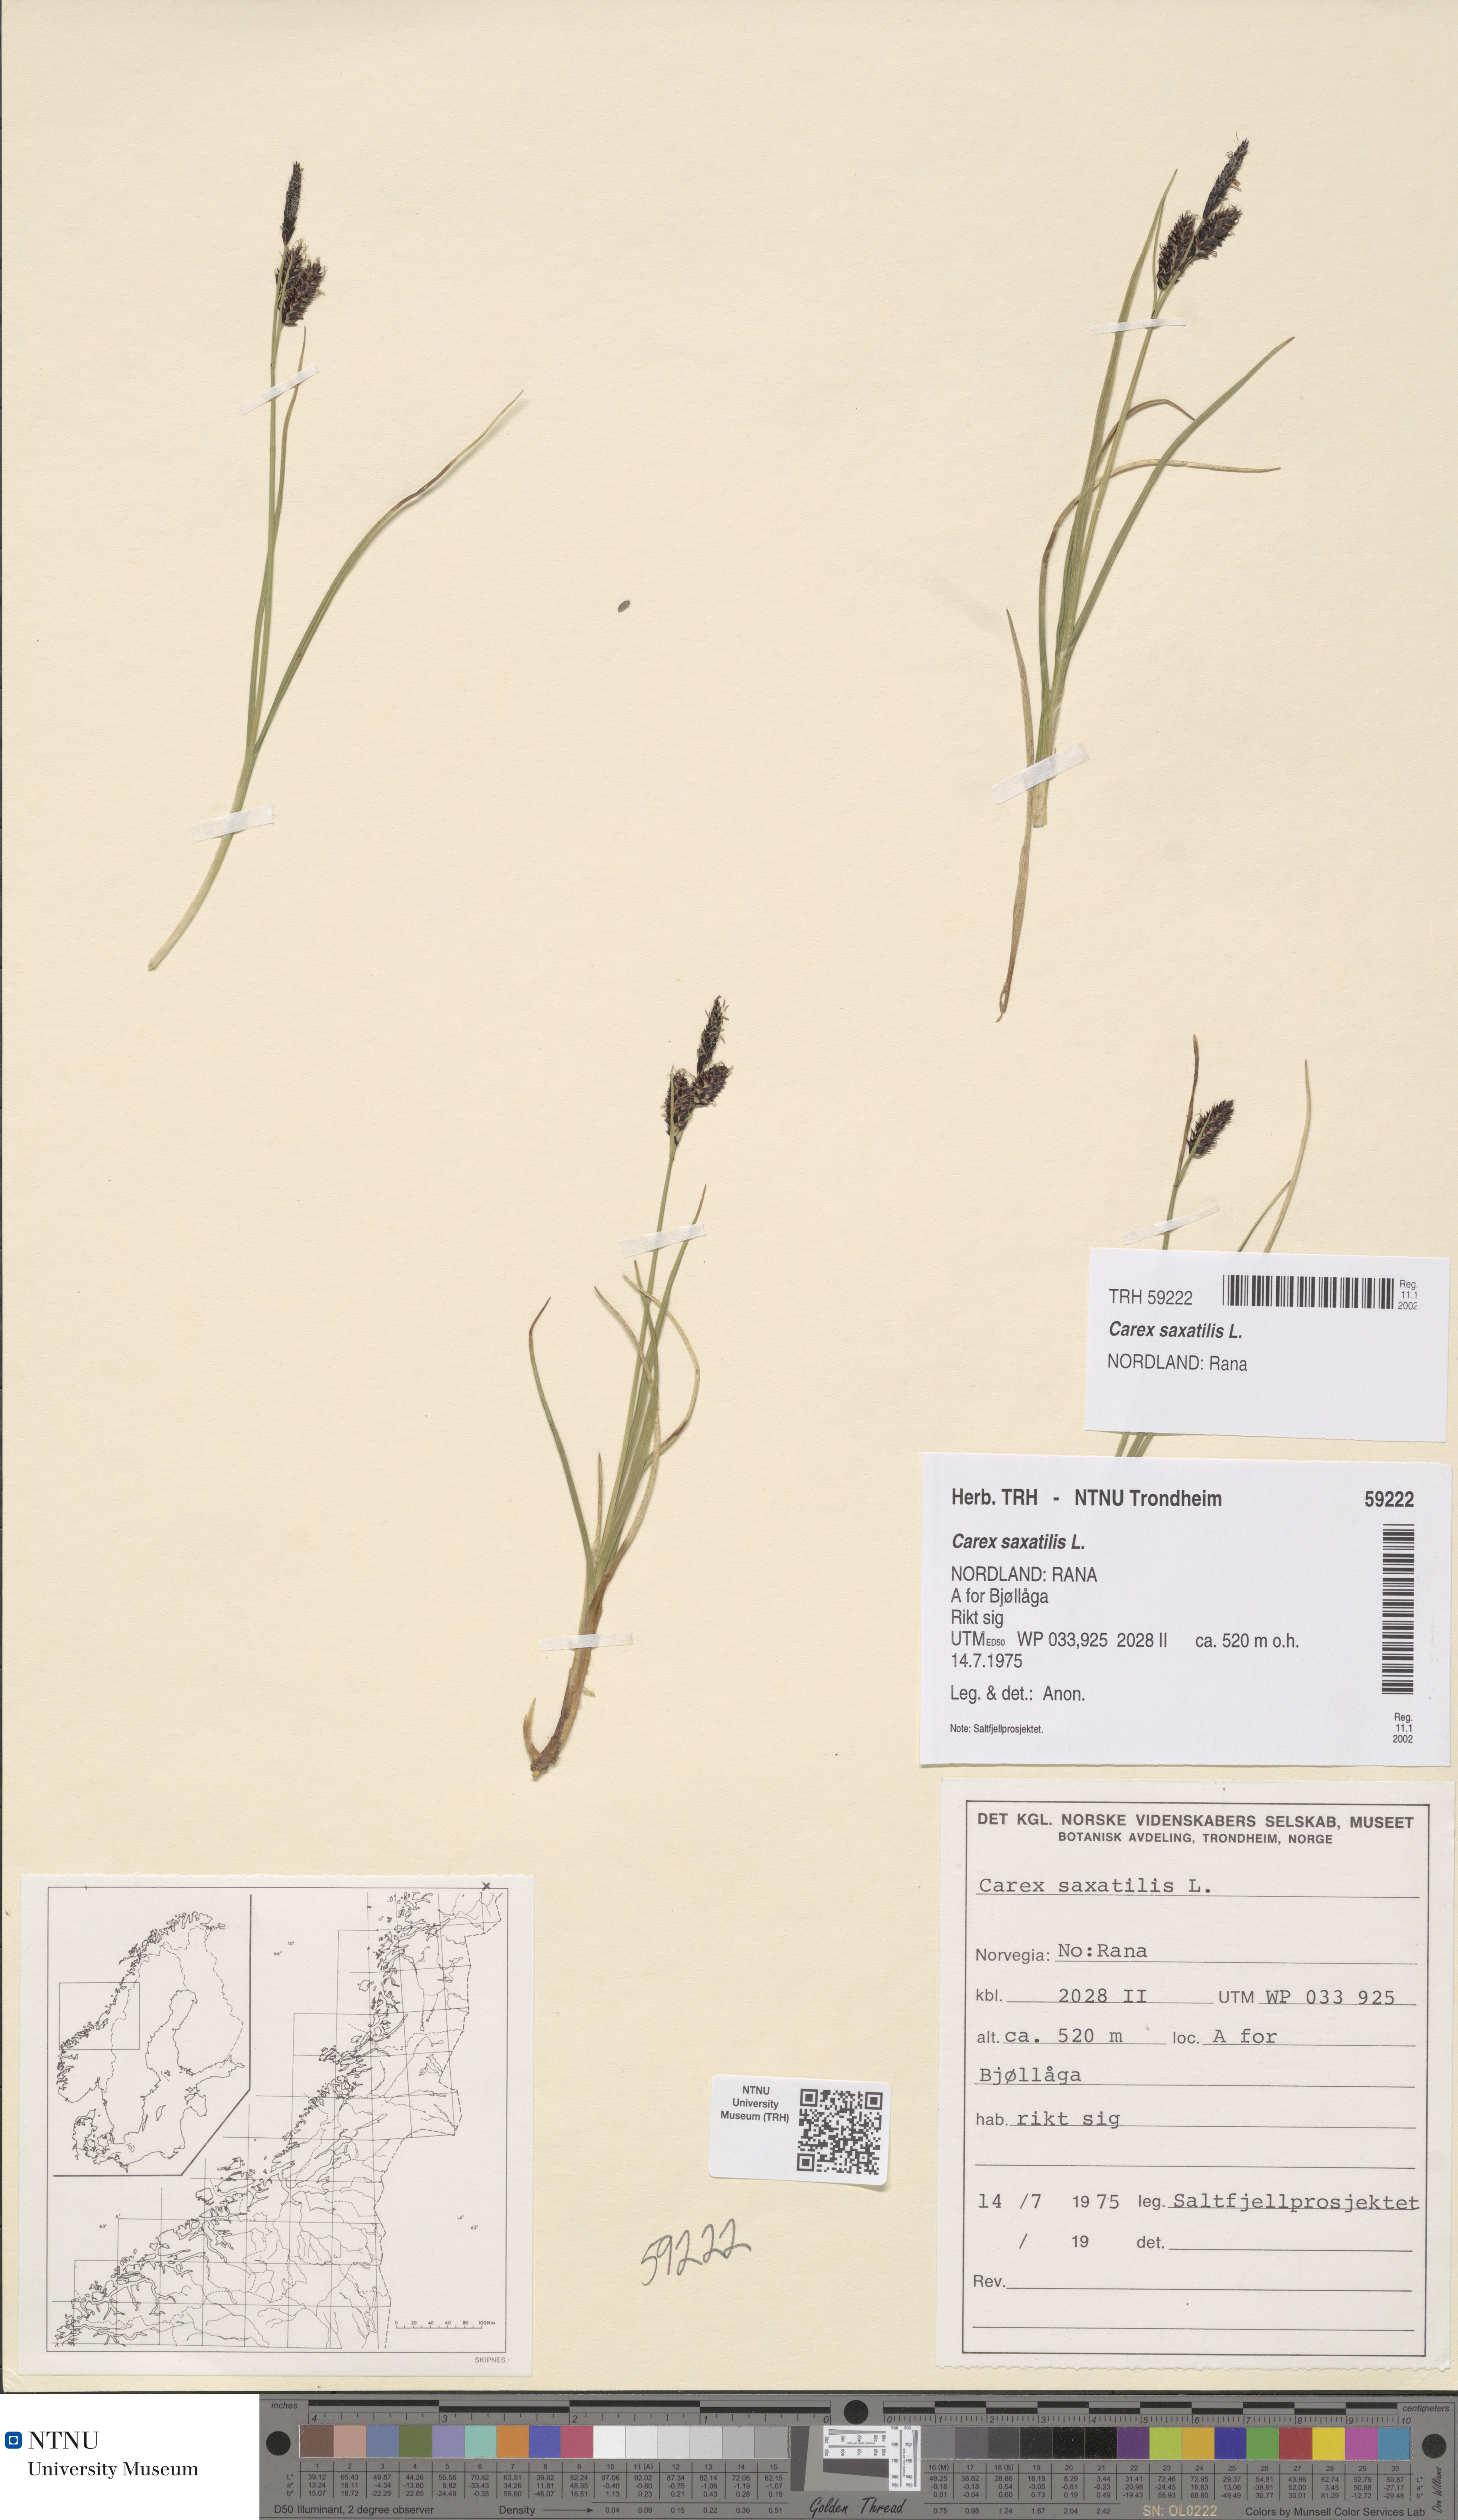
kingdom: Plantae
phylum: Tracheophyta
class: Liliopsida
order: Poales
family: Cyperaceae
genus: Carex
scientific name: Carex saxatilis
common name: Russet sedge
